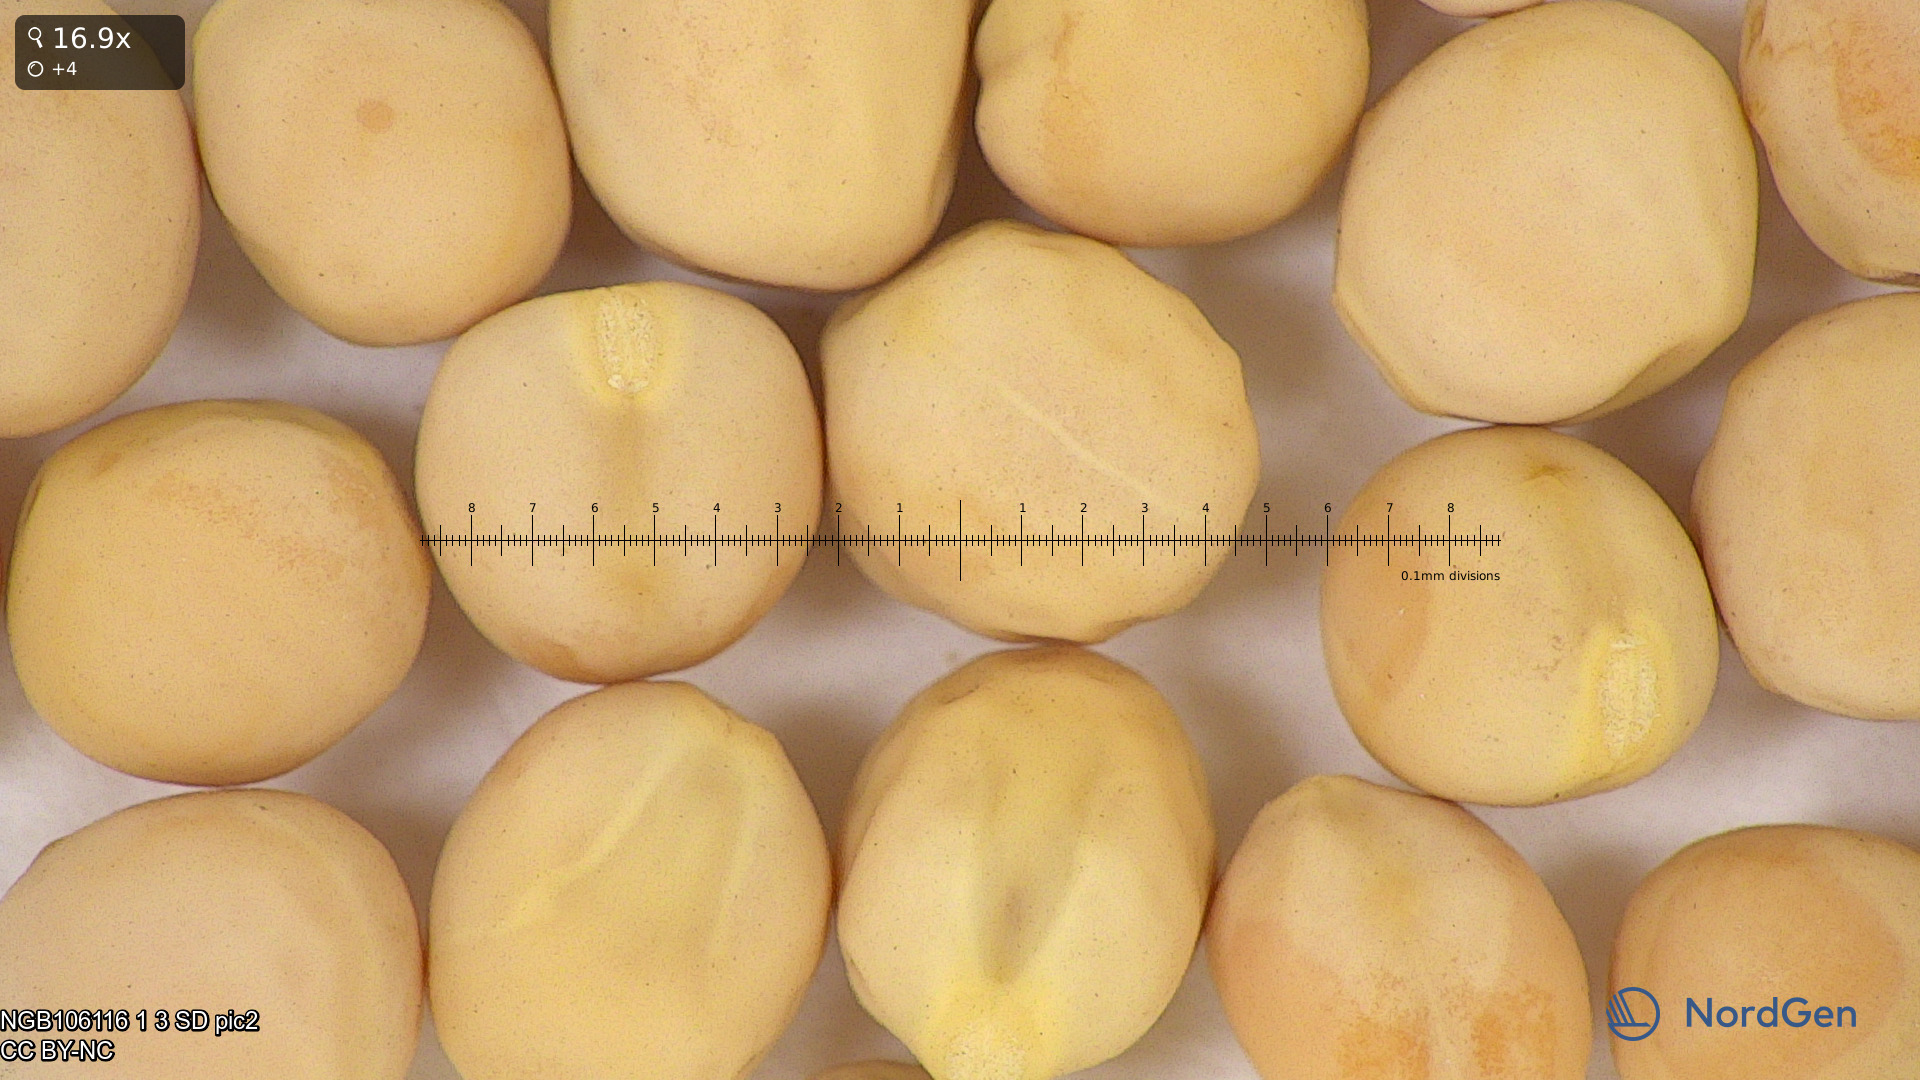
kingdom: Plantae
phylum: Tracheophyta
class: Magnoliopsida
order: Fabales
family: Fabaceae
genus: Lathyrus
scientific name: Lathyrus oleraceus
